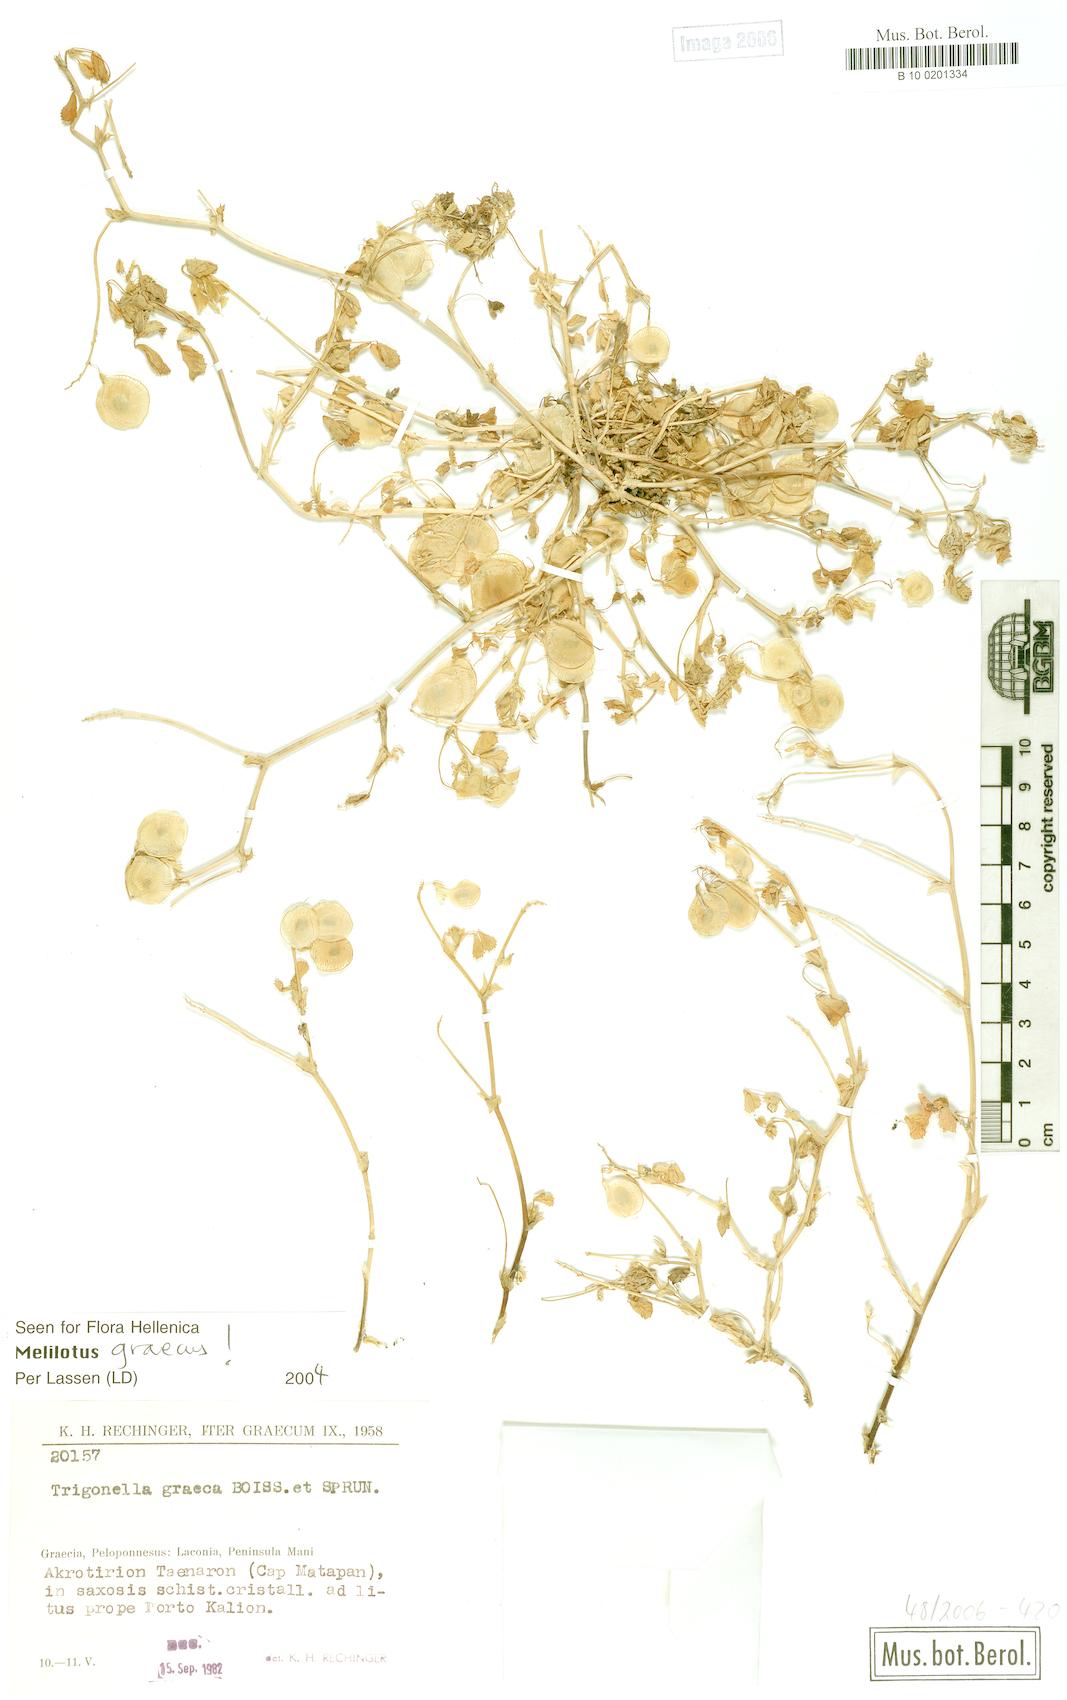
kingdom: Plantae
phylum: Tracheophyta
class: Magnoliopsida
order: Fabales
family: Fabaceae
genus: Trigonella
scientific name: Trigonella graeca
